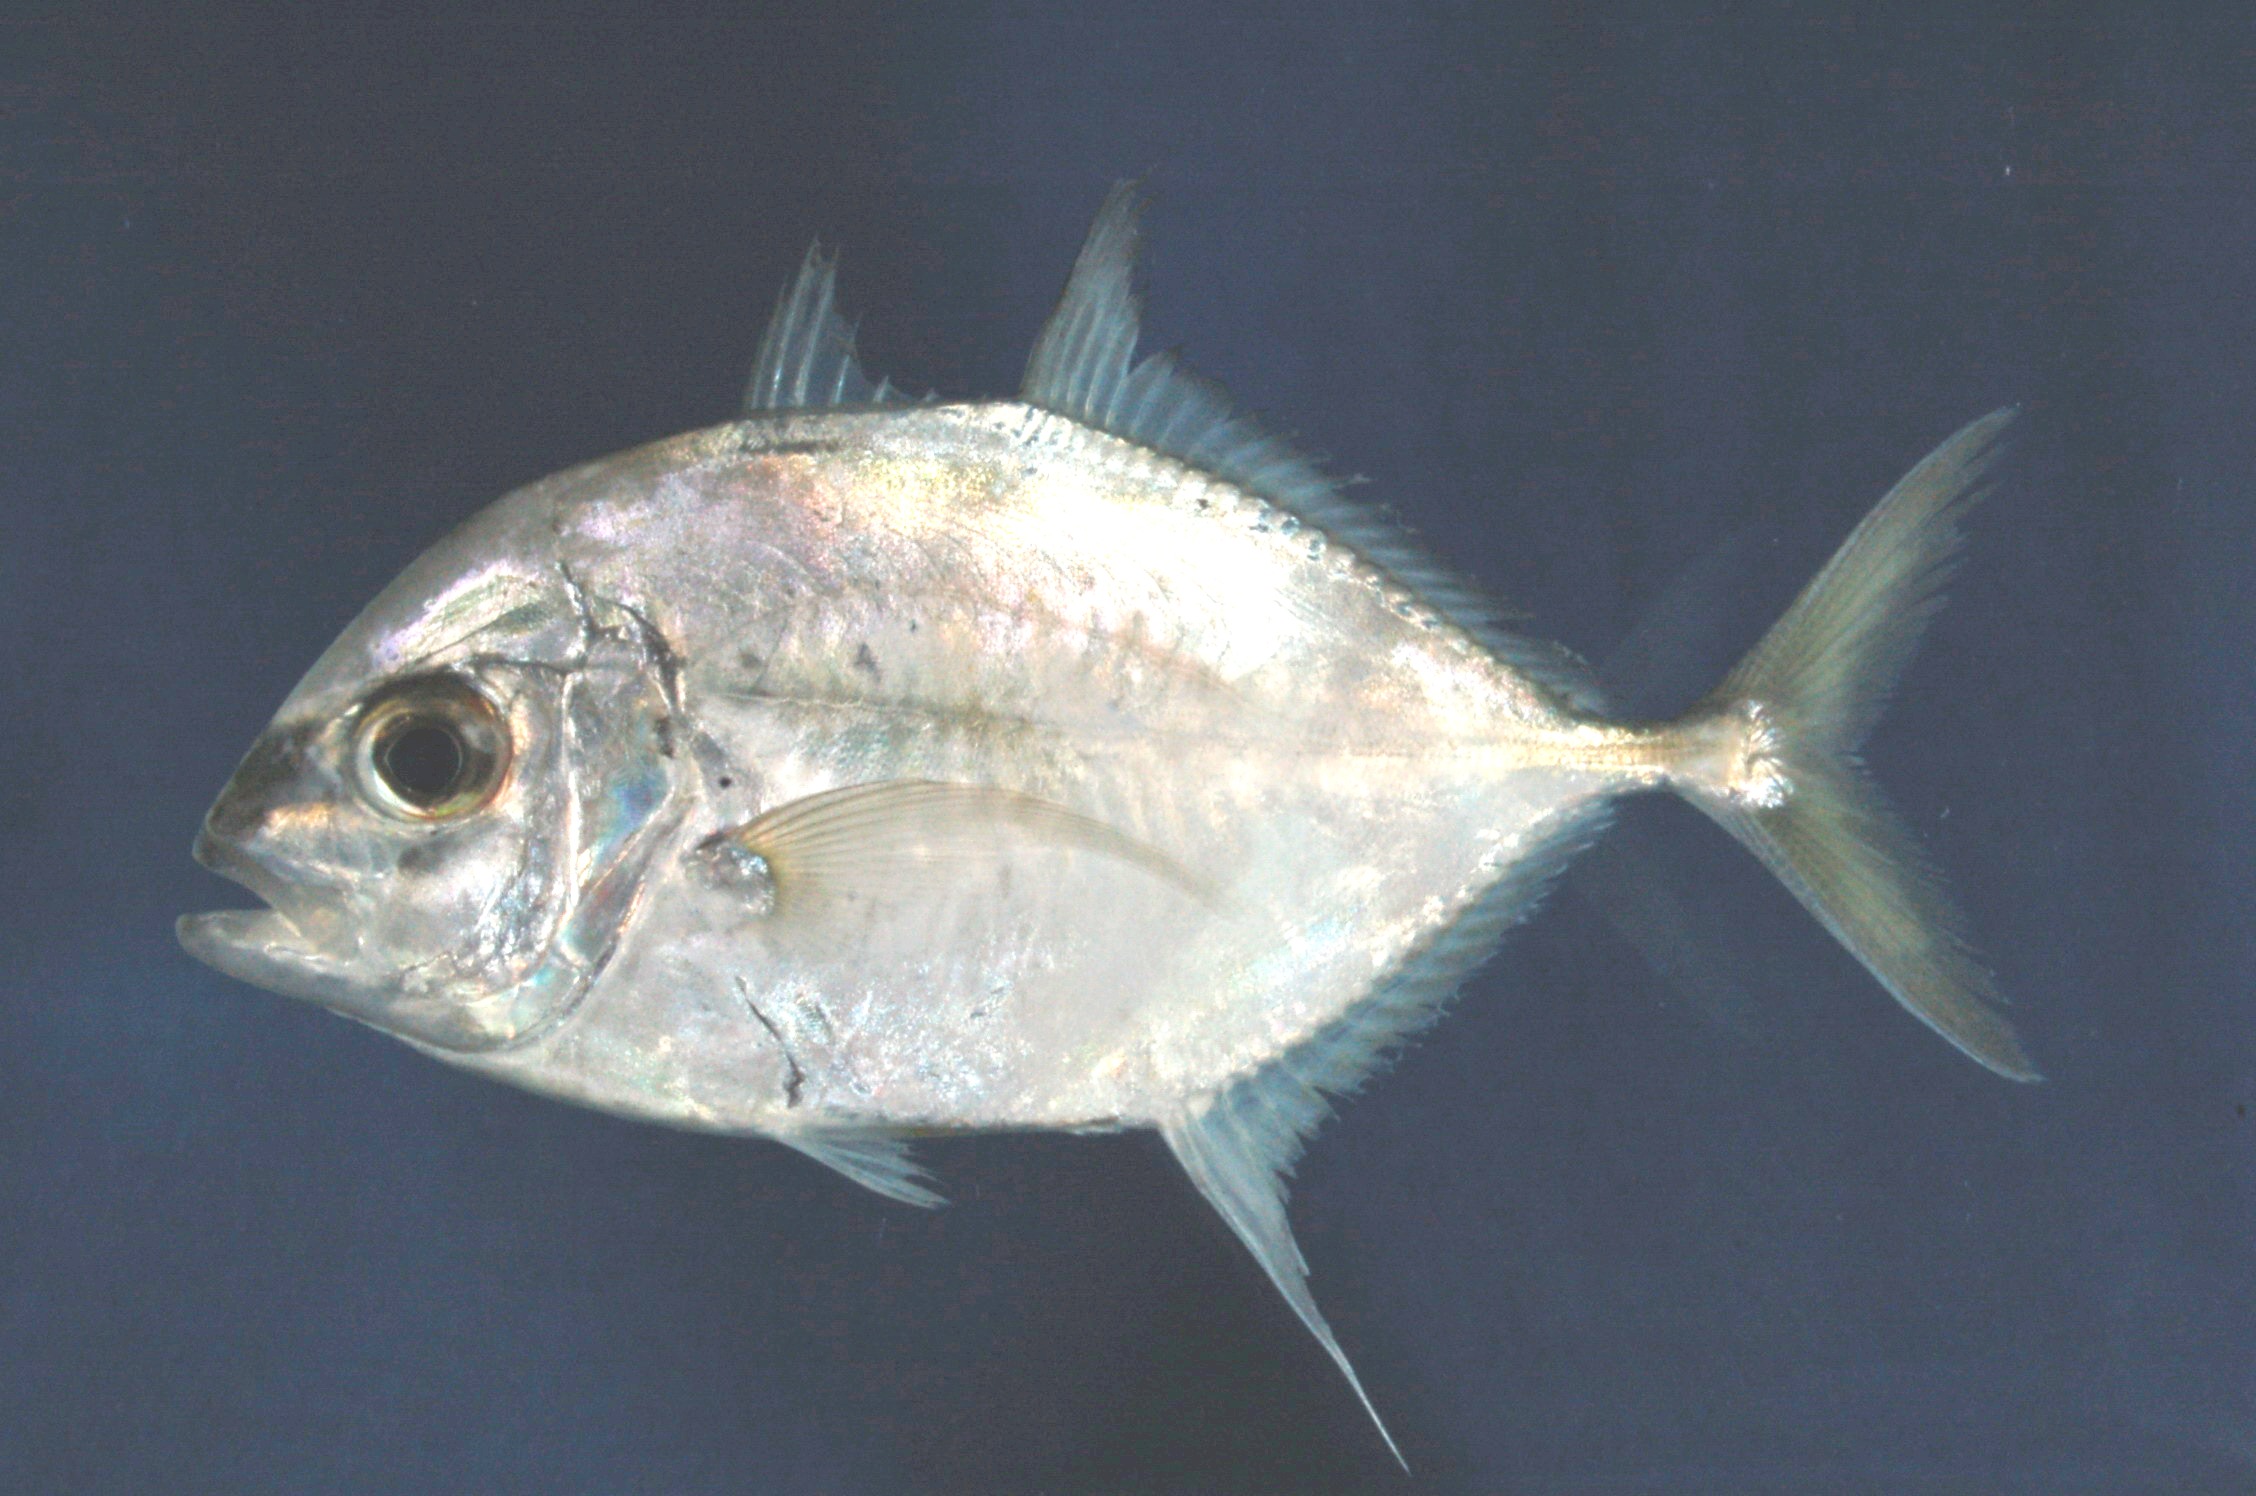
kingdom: Animalia
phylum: Chordata
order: Perciformes
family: Carangidae
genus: Carangoides
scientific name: Carangoides malabaricus
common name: Malabar trevally
